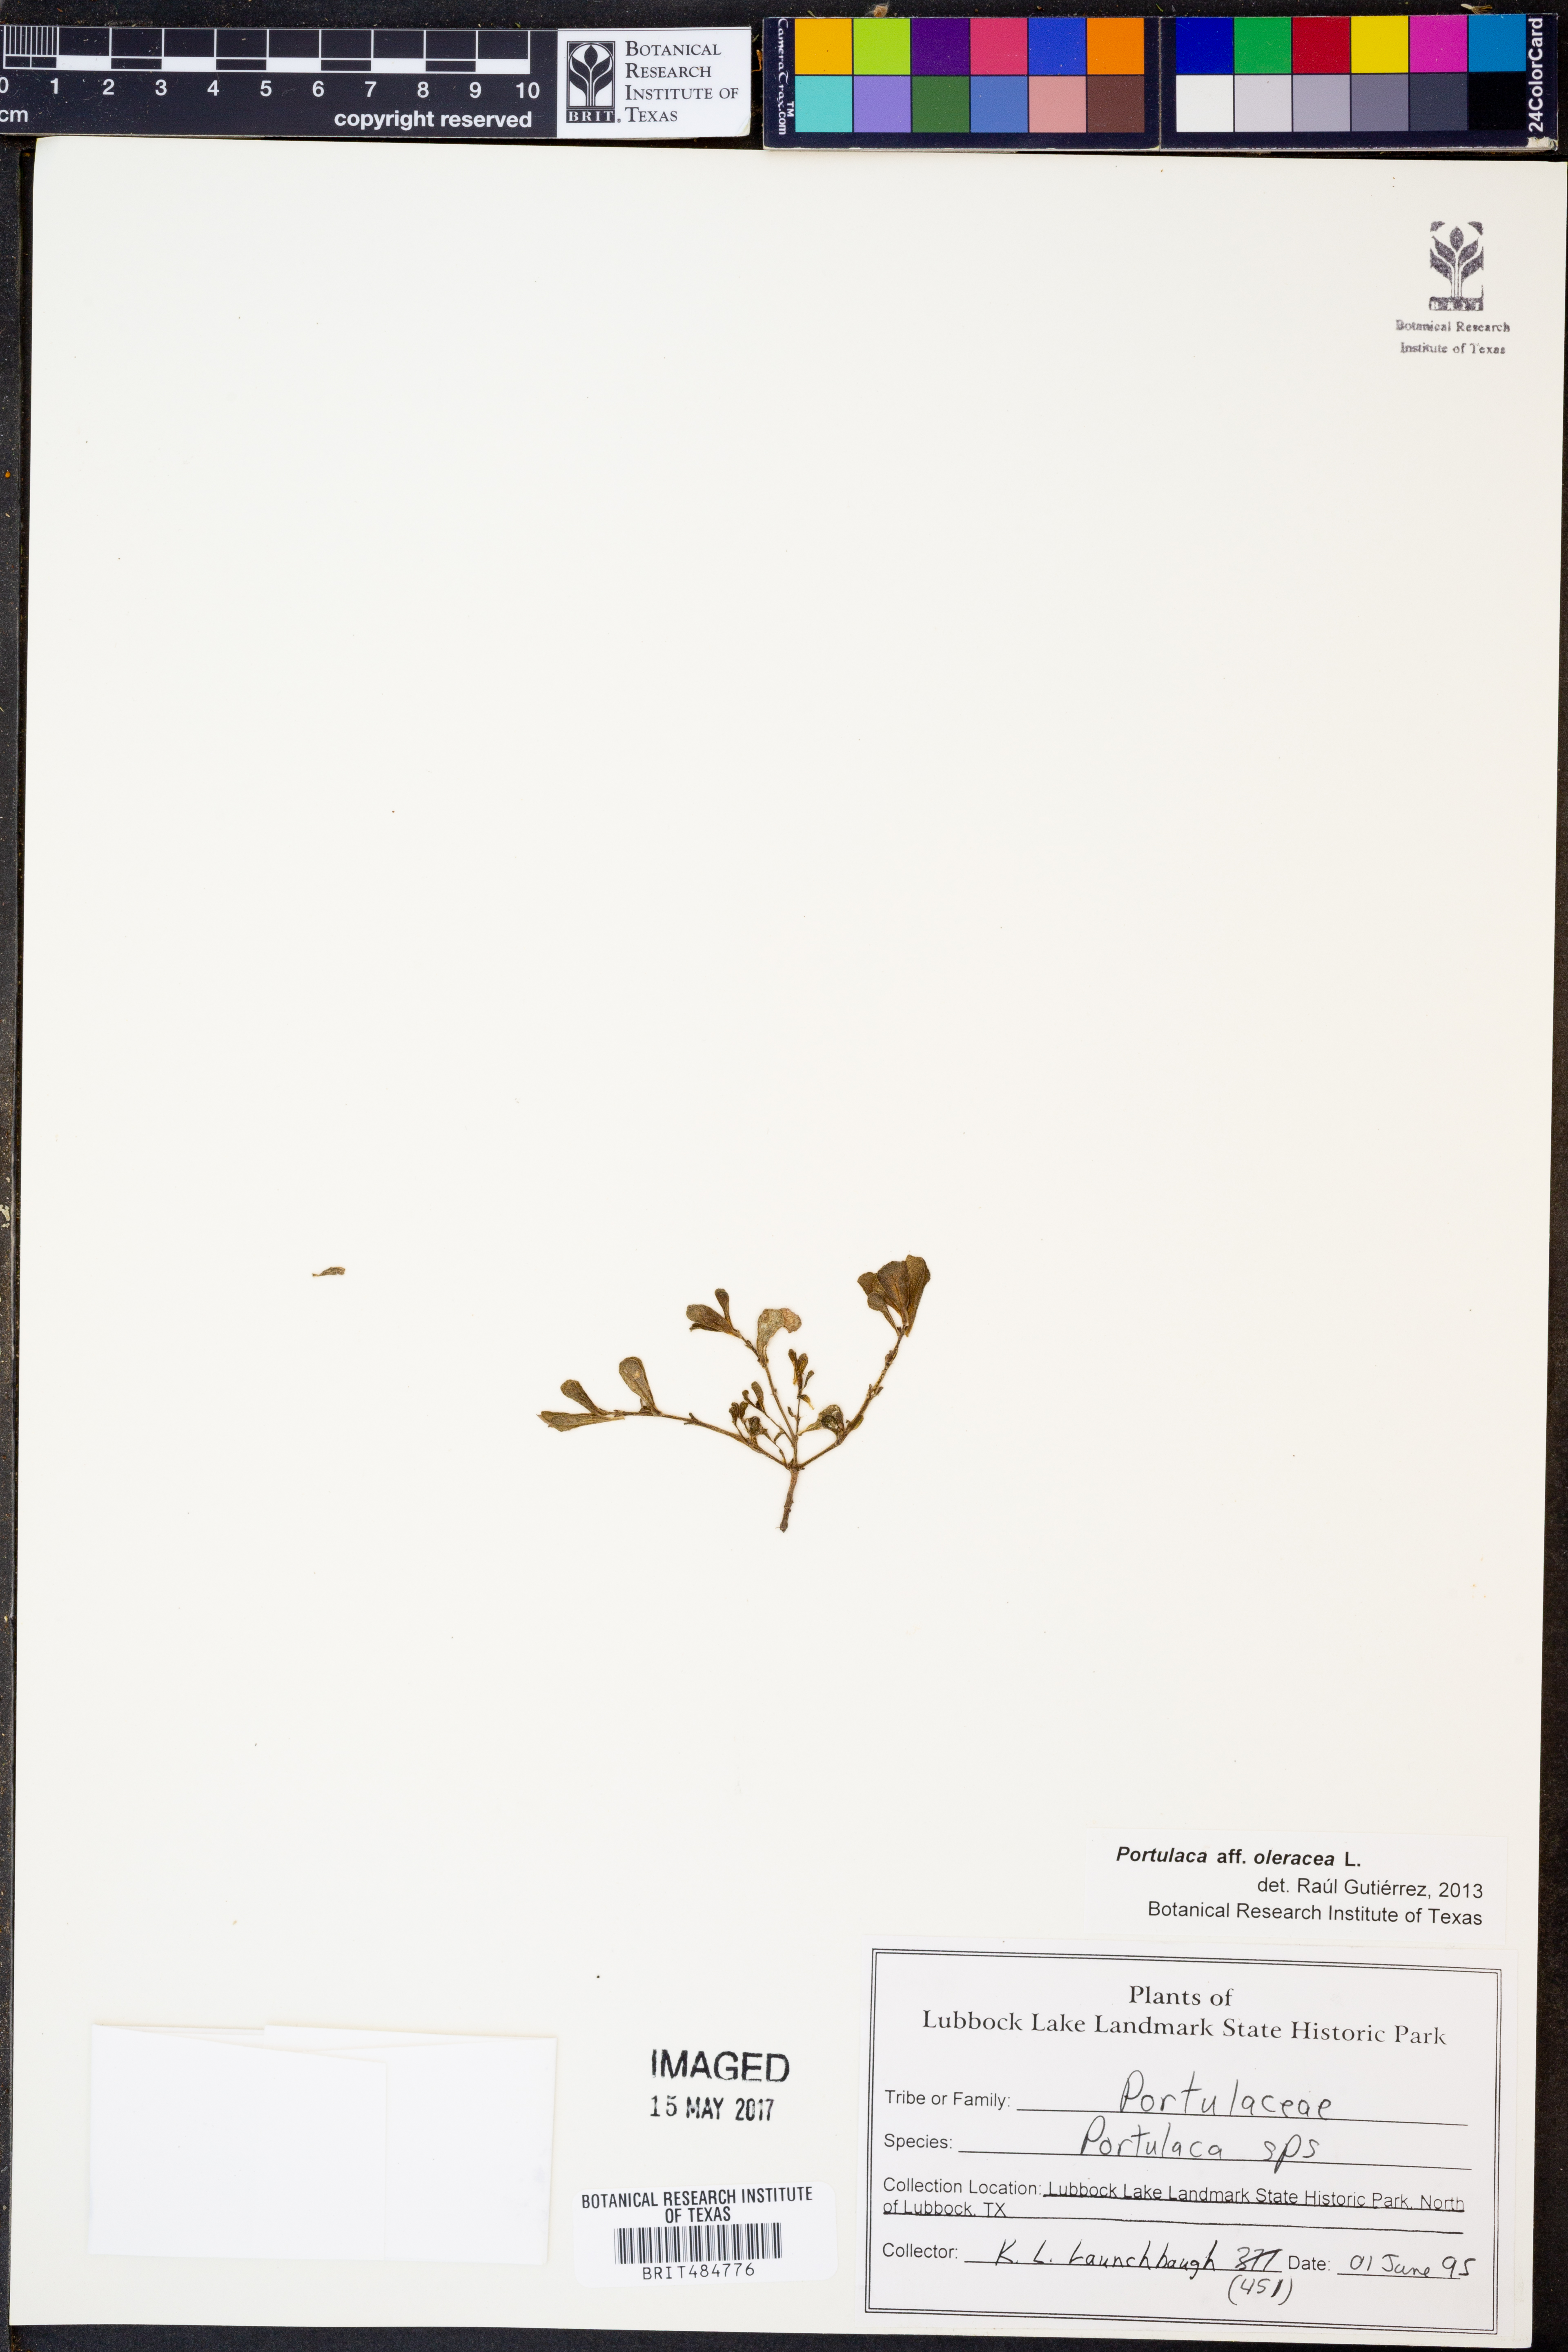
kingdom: Plantae
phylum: Tracheophyta
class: Magnoliopsida
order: Caryophyllales
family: Portulacaceae
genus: Portulaca
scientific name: Portulaca oleracea
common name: Common purslane
